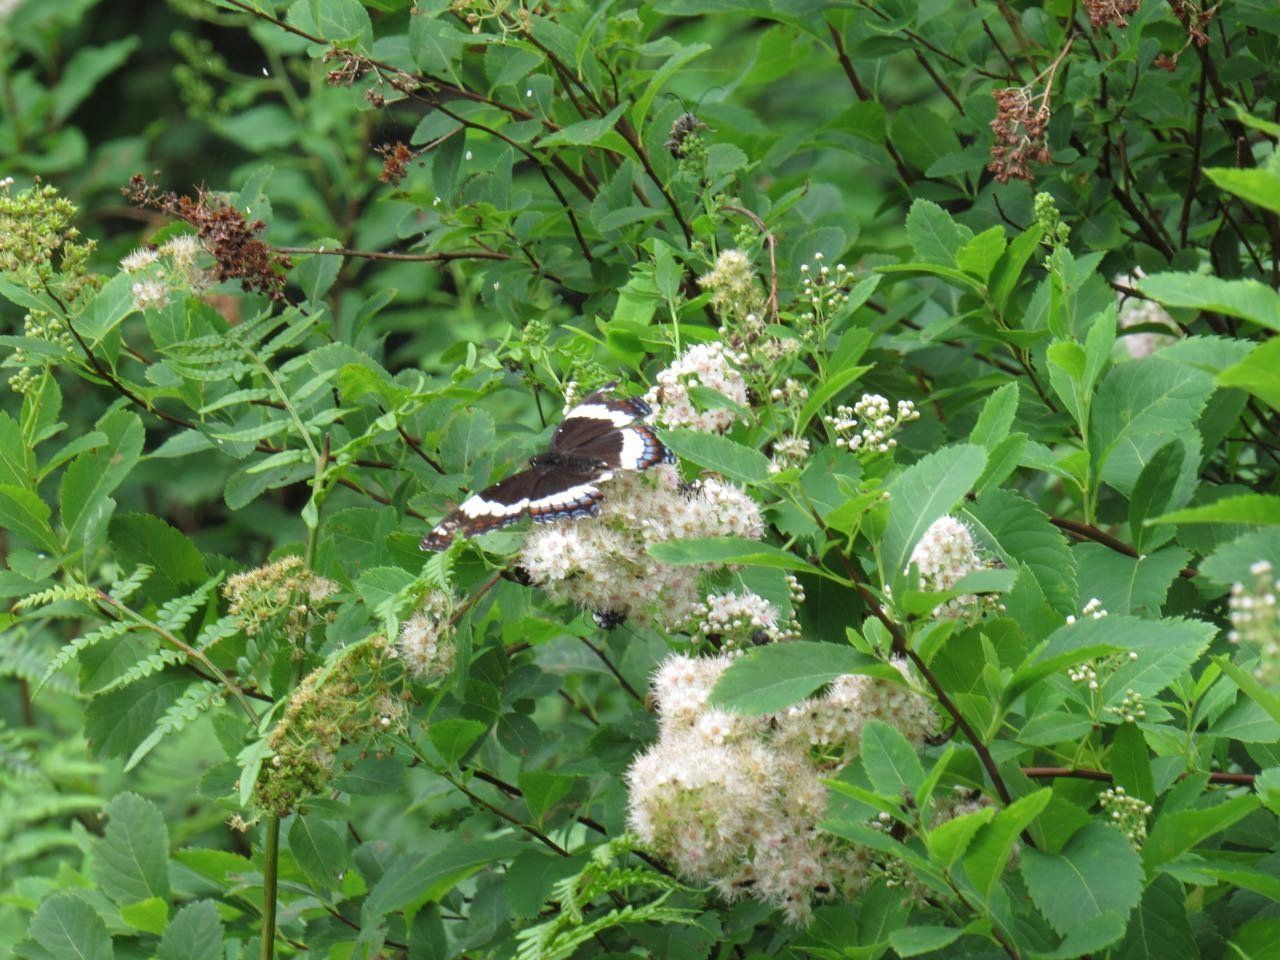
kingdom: Animalia
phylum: Arthropoda
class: Insecta
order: Lepidoptera
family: Nymphalidae
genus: Limenitis
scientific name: Limenitis arthemis
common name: Red-spotted Admiral
